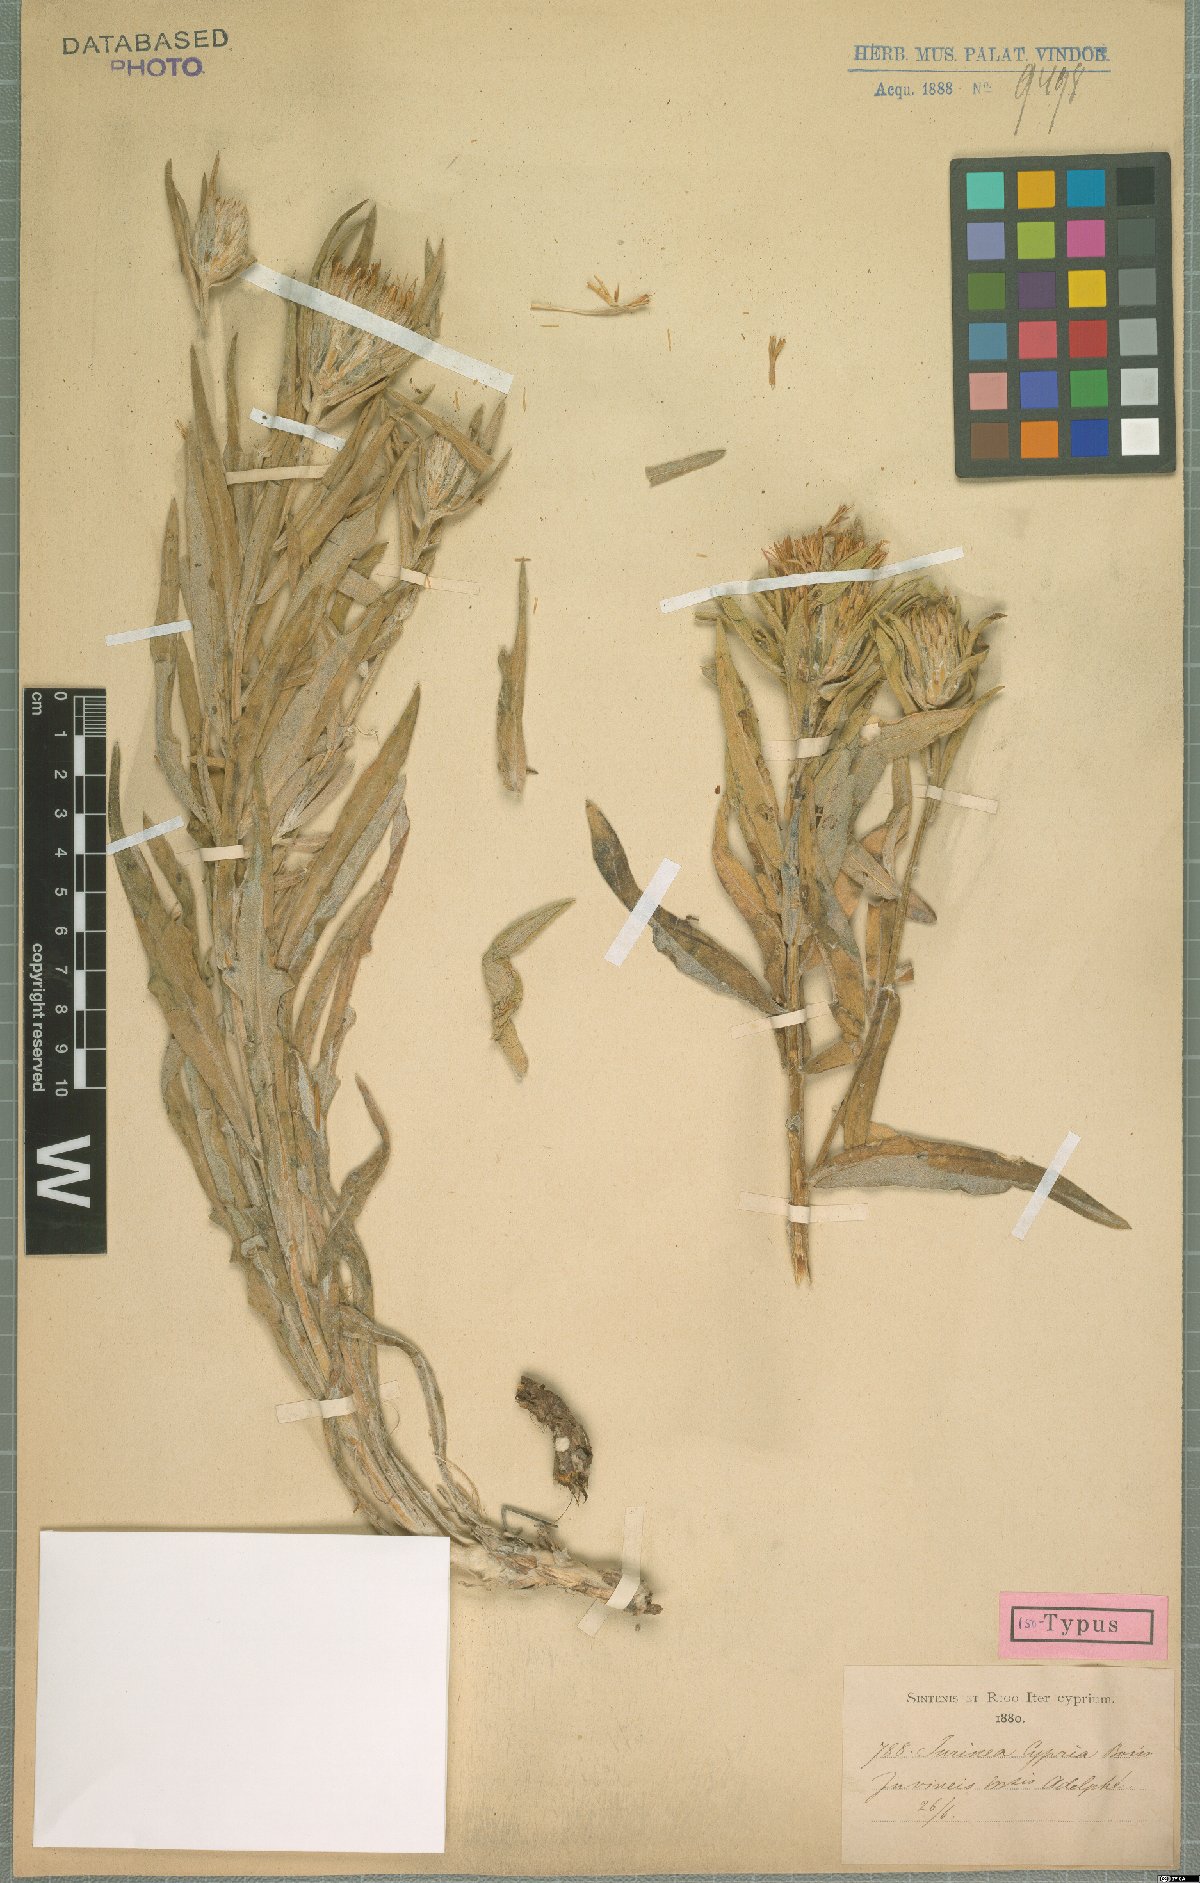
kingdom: Plantae
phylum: Tracheophyta
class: Magnoliopsida
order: Asterales
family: Asteraceae
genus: Jurinea
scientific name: Jurinea cypria
